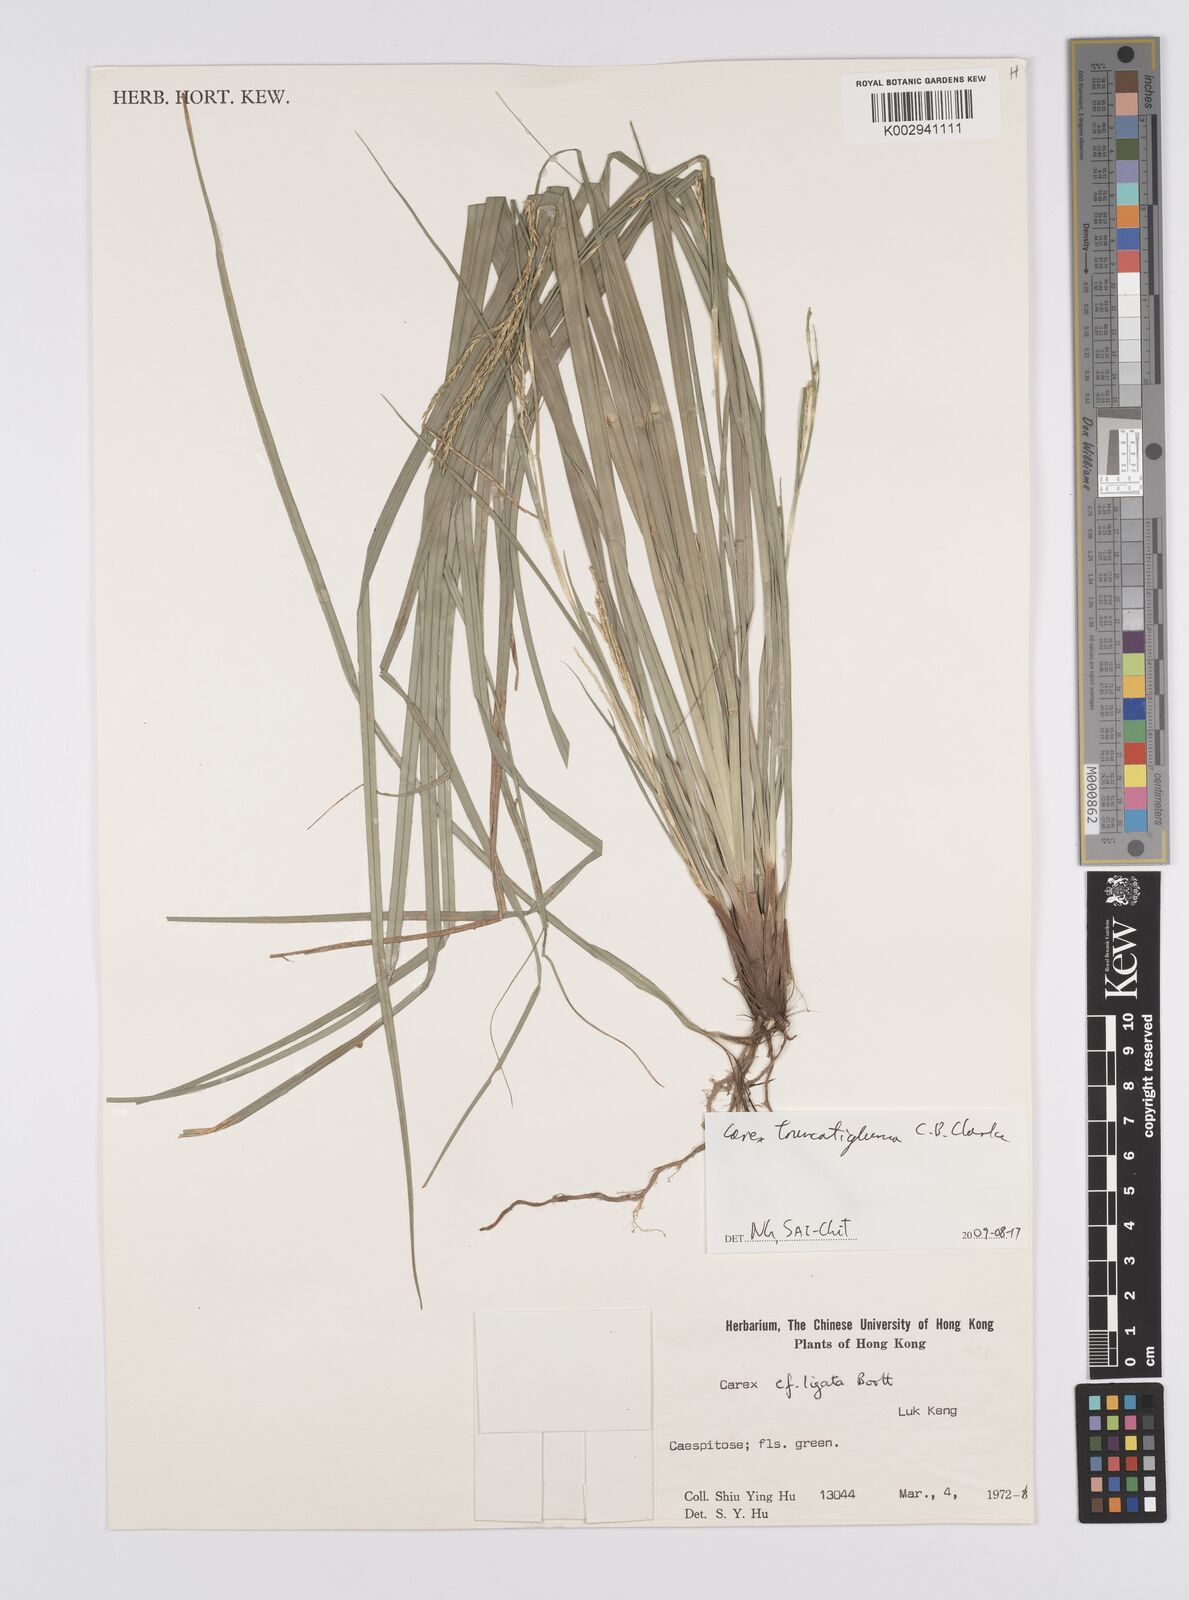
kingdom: Plantae
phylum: Tracheophyta
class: Liliopsida
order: Poales
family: Cyperaceae
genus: Carex
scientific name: Carex truncatigluma
